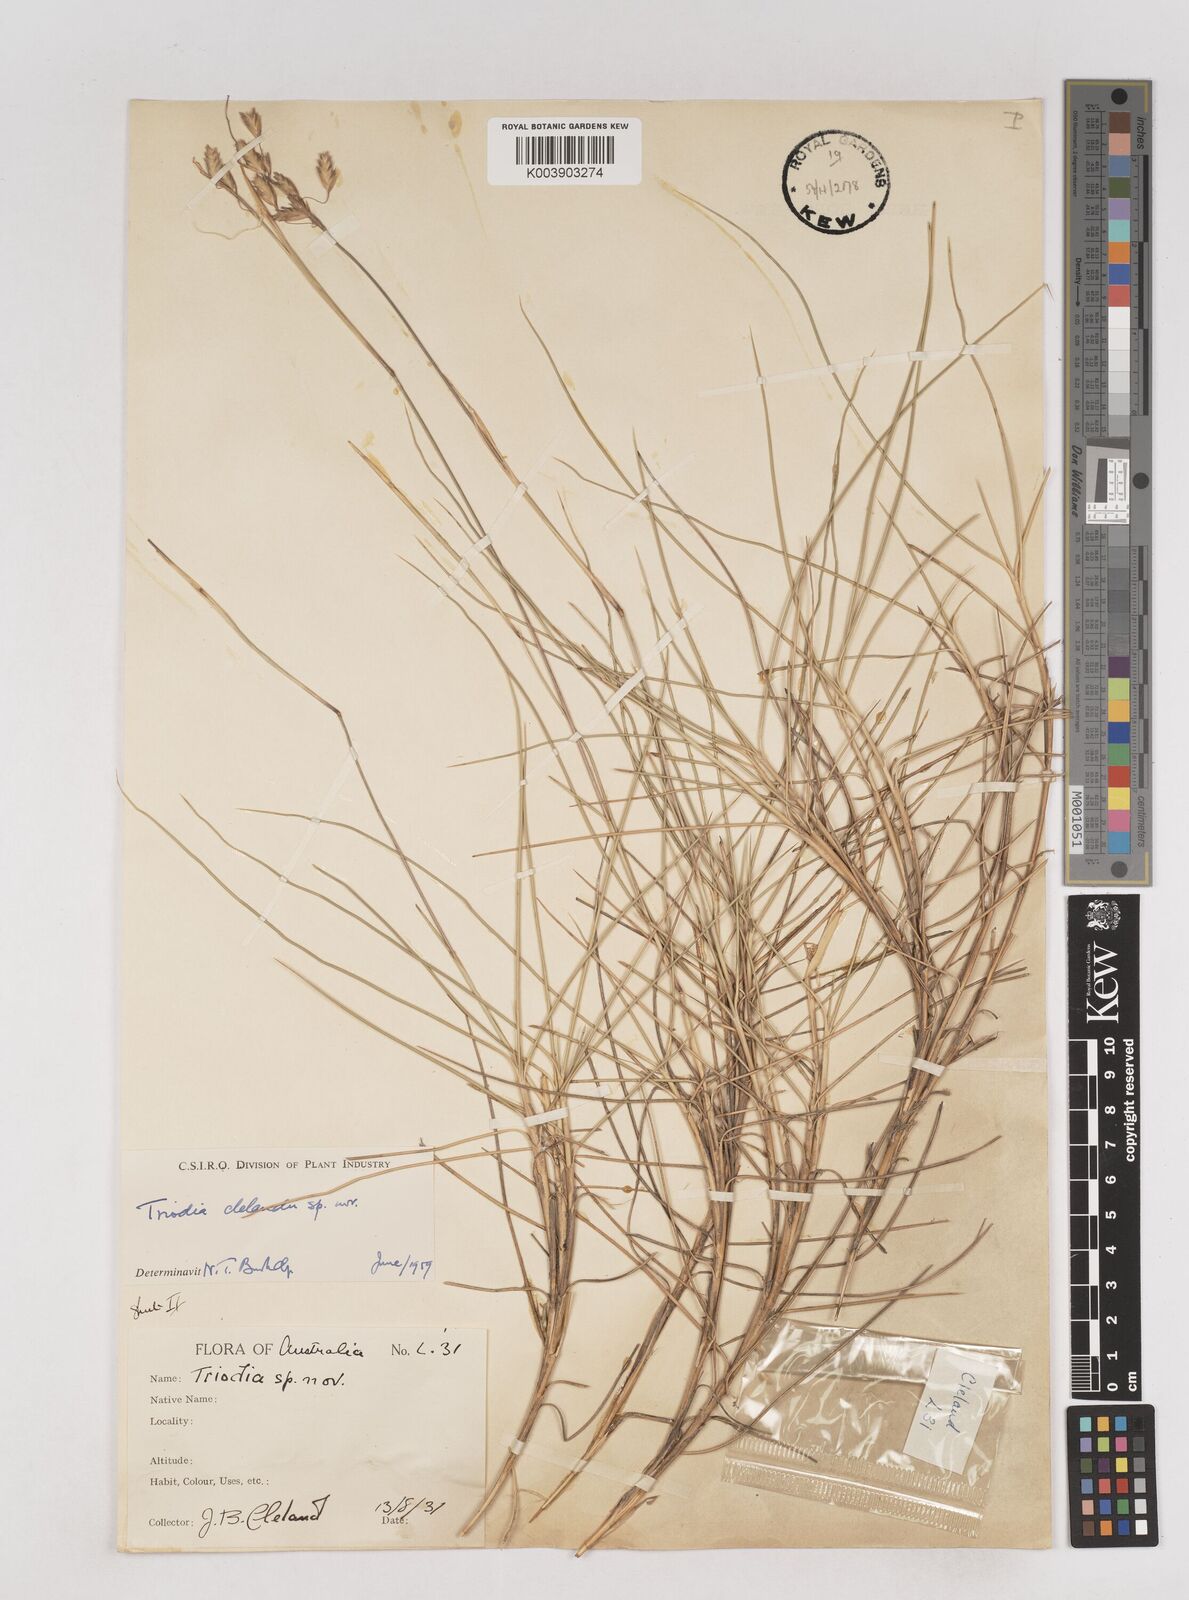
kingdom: Plantae
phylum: Tracheophyta
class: Liliopsida
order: Poales
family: Poaceae
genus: Triodia
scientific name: Triodia brizoides
